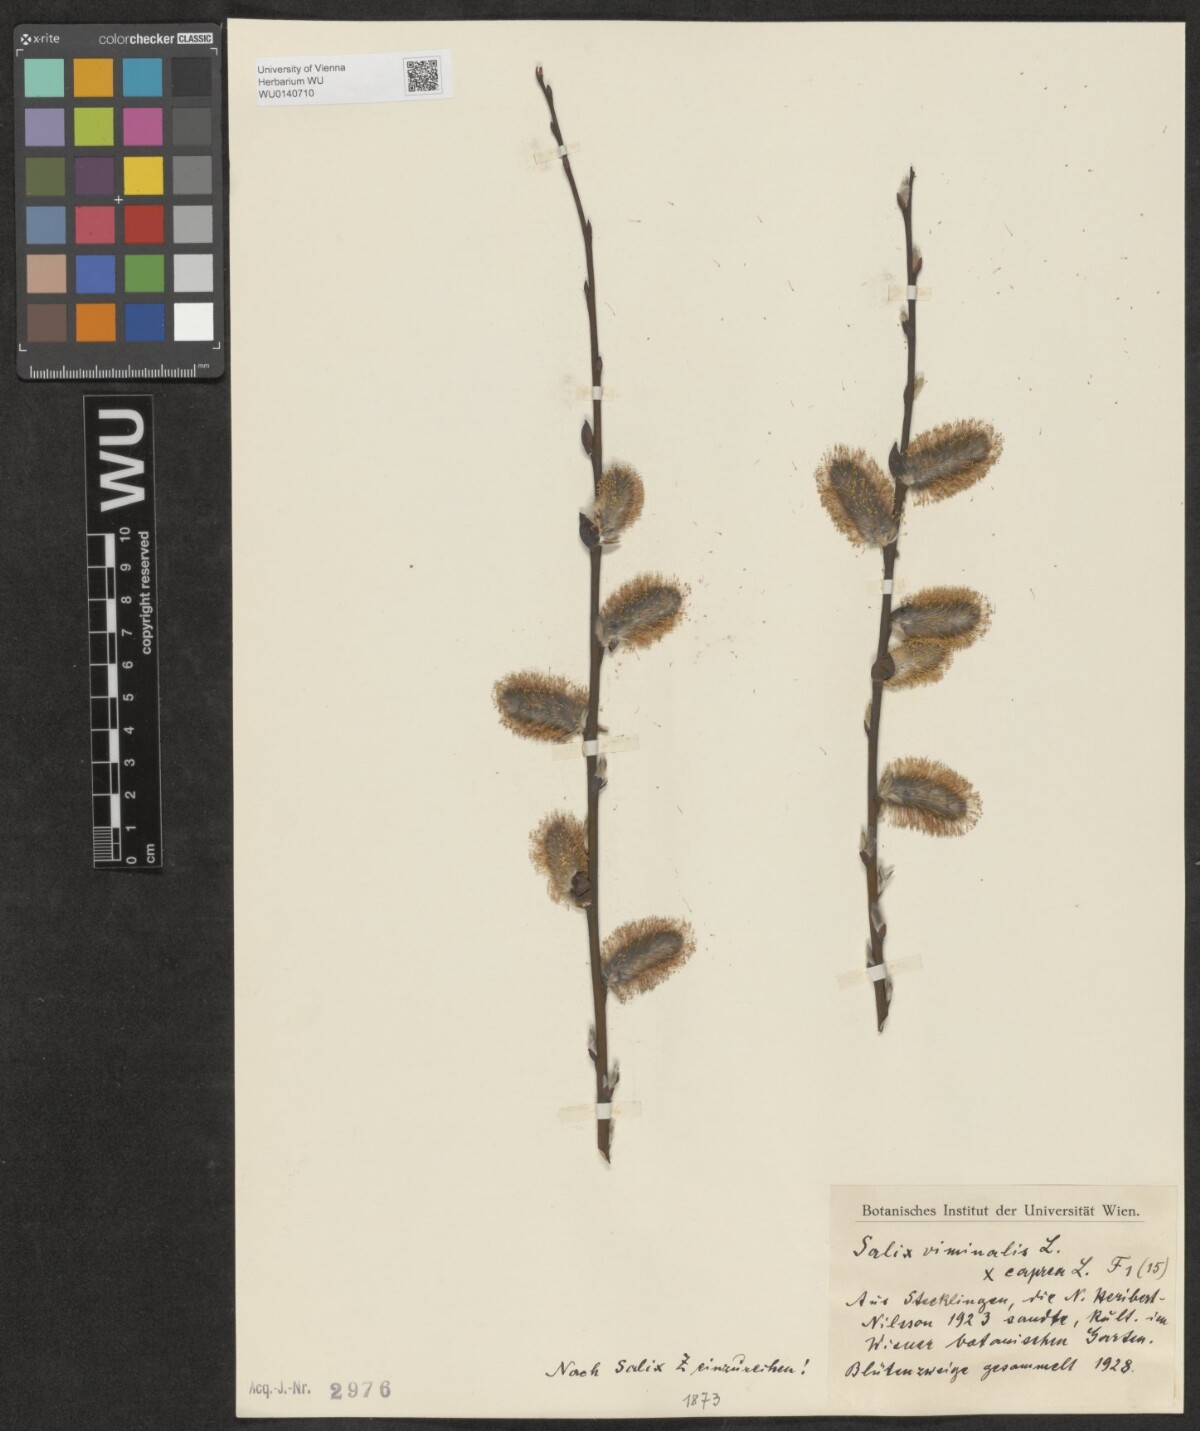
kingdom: Plantae
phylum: Tracheophyta
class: Magnoliopsida
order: Malpighiales
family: Salicaceae
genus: Salix
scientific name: Salix
